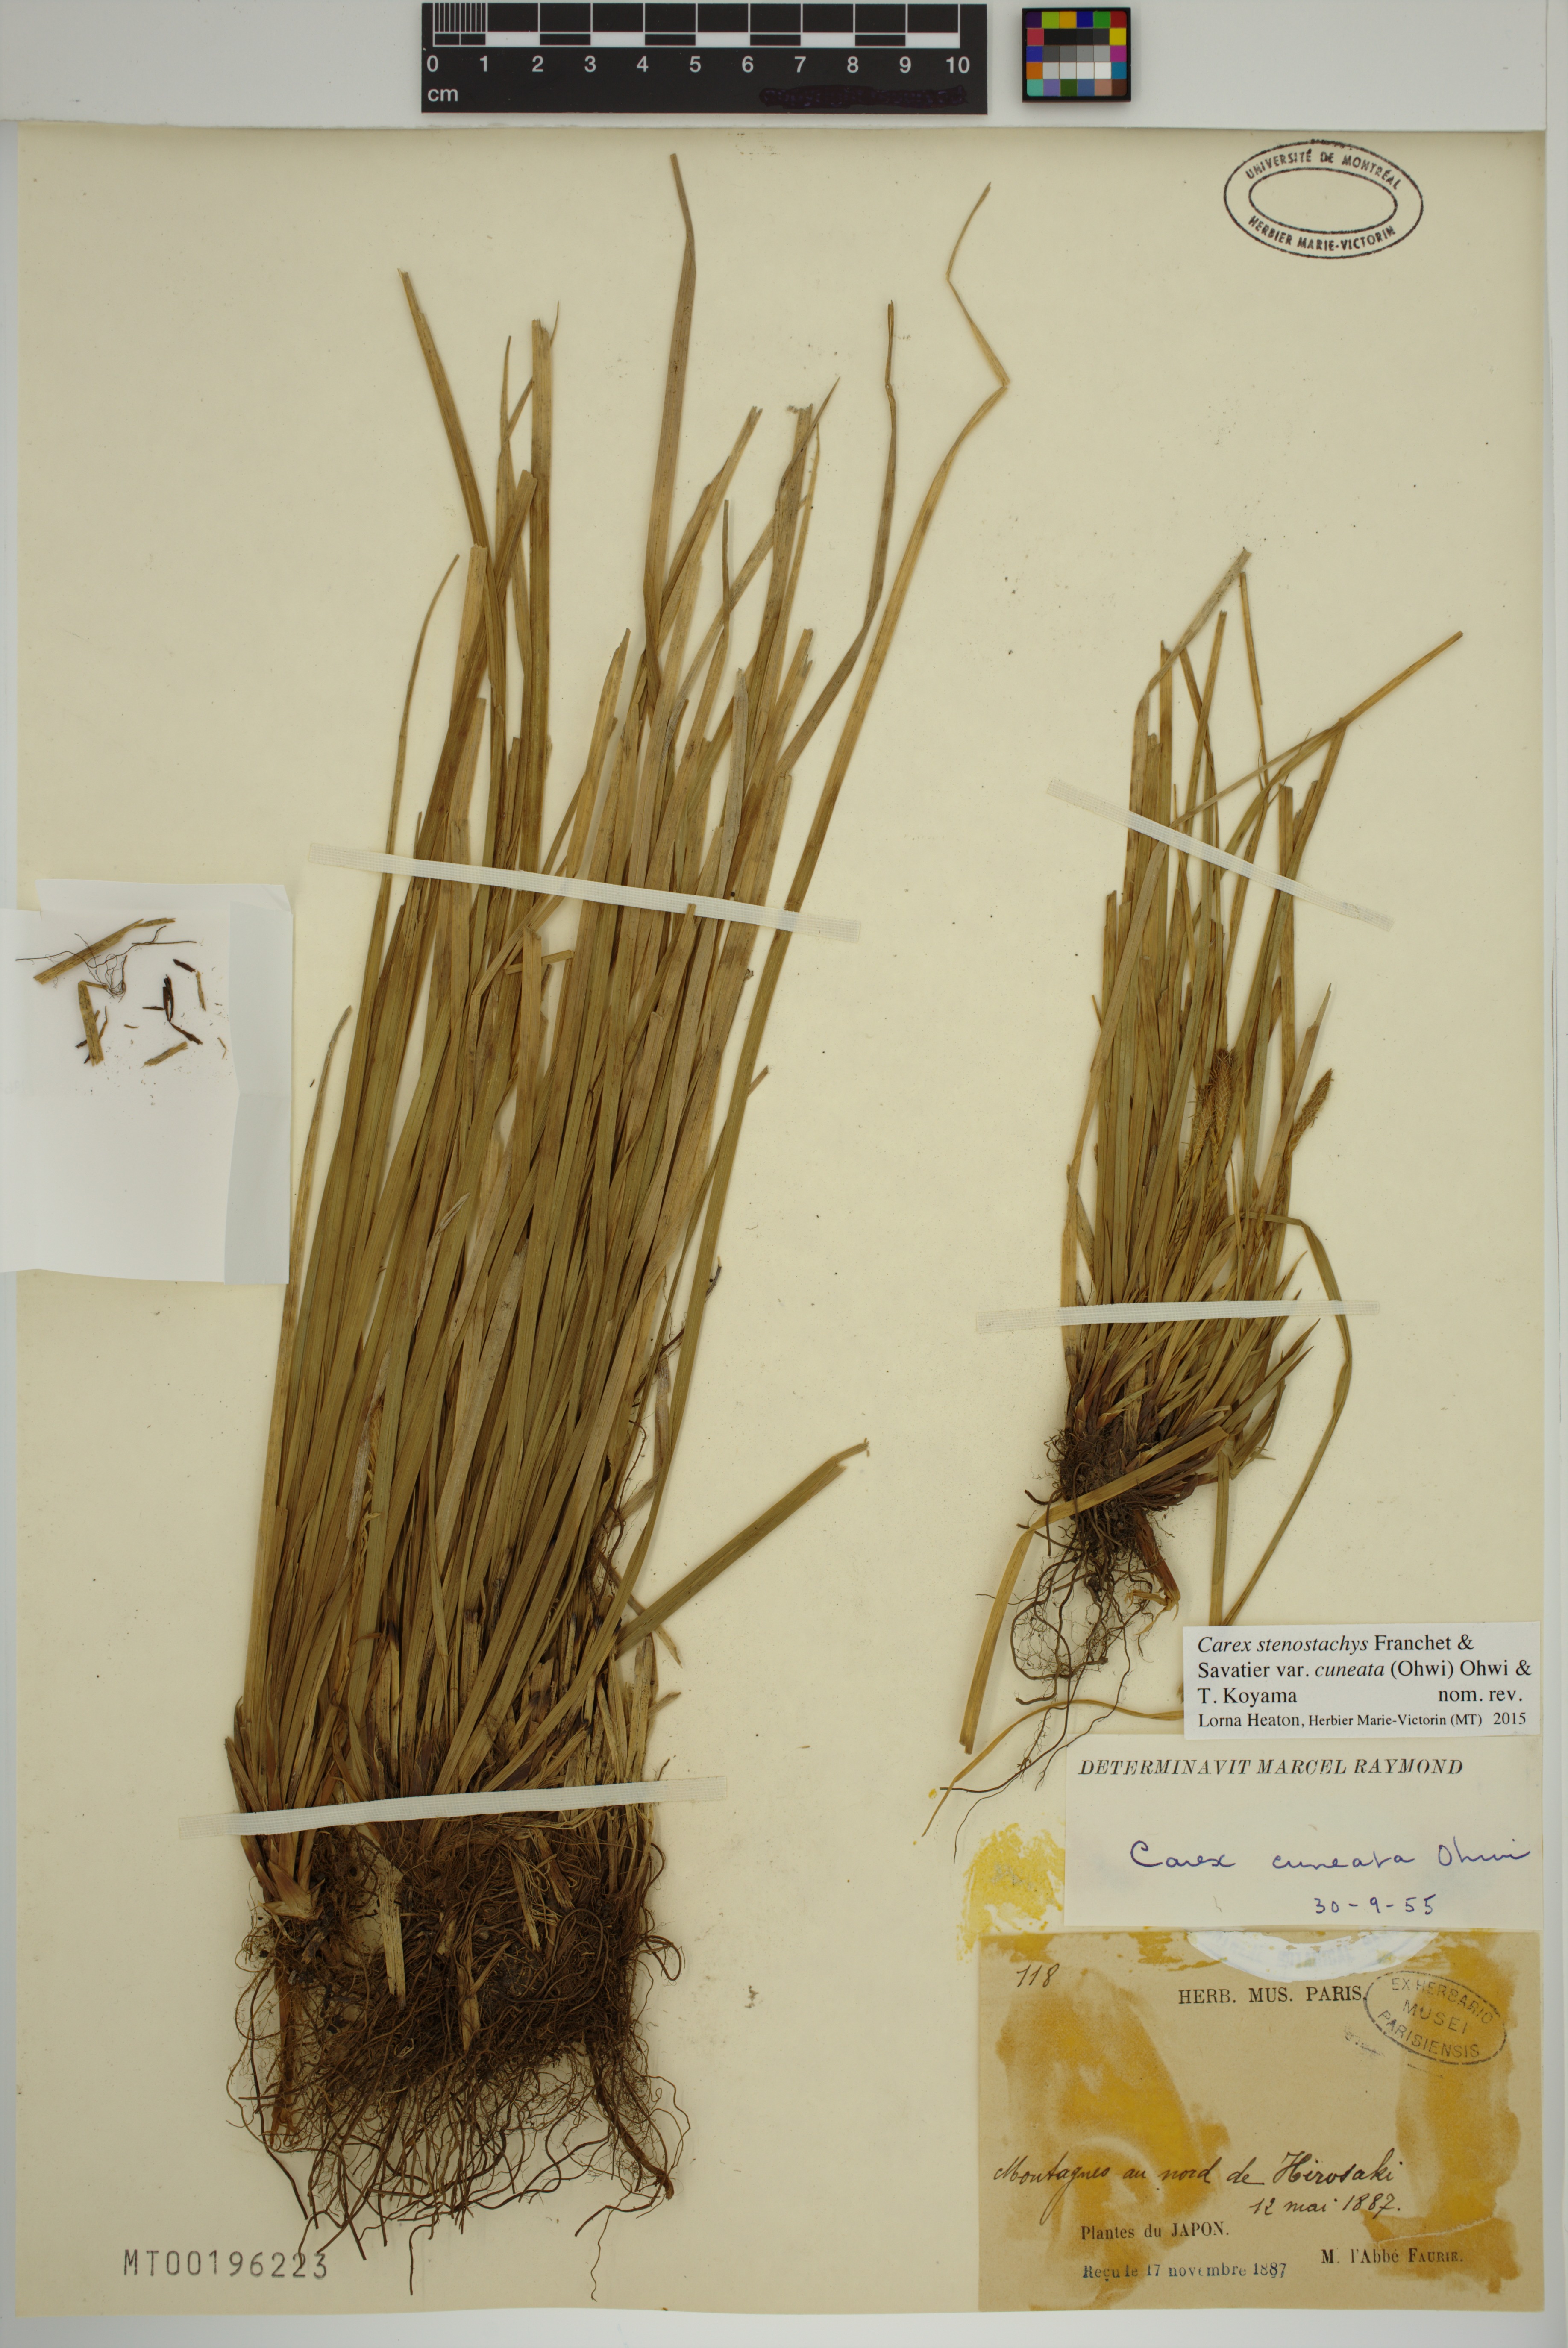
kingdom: Plantae
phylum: Tracheophyta
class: Liliopsida
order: Poales
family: Cyperaceae
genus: Carex
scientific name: Carex stenostachys
